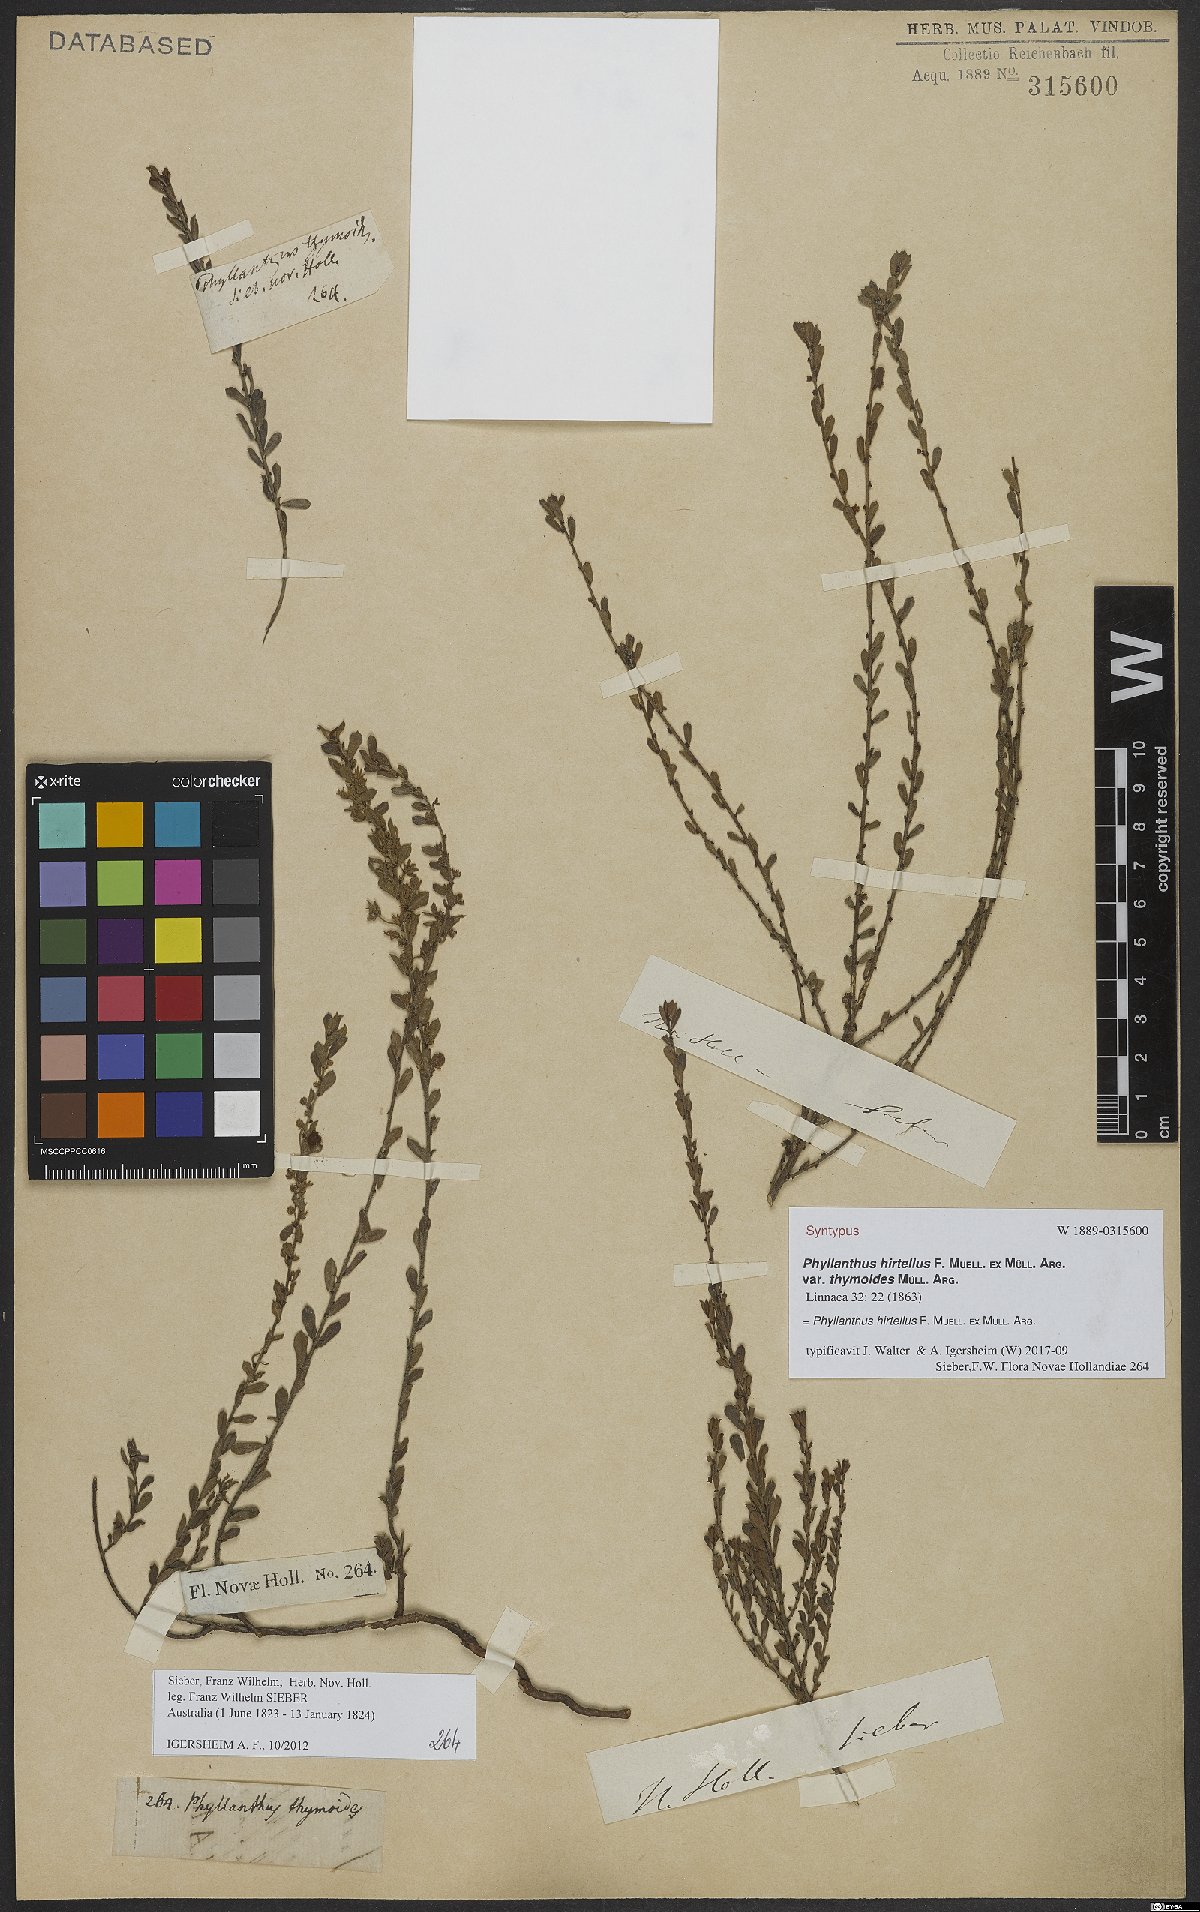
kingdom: Plantae
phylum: Tracheophyta
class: Magnoliopsida
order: Malpighiales
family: Phyllanthaceae
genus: Phyllanthus
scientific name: Phyllanthus hirtellus
